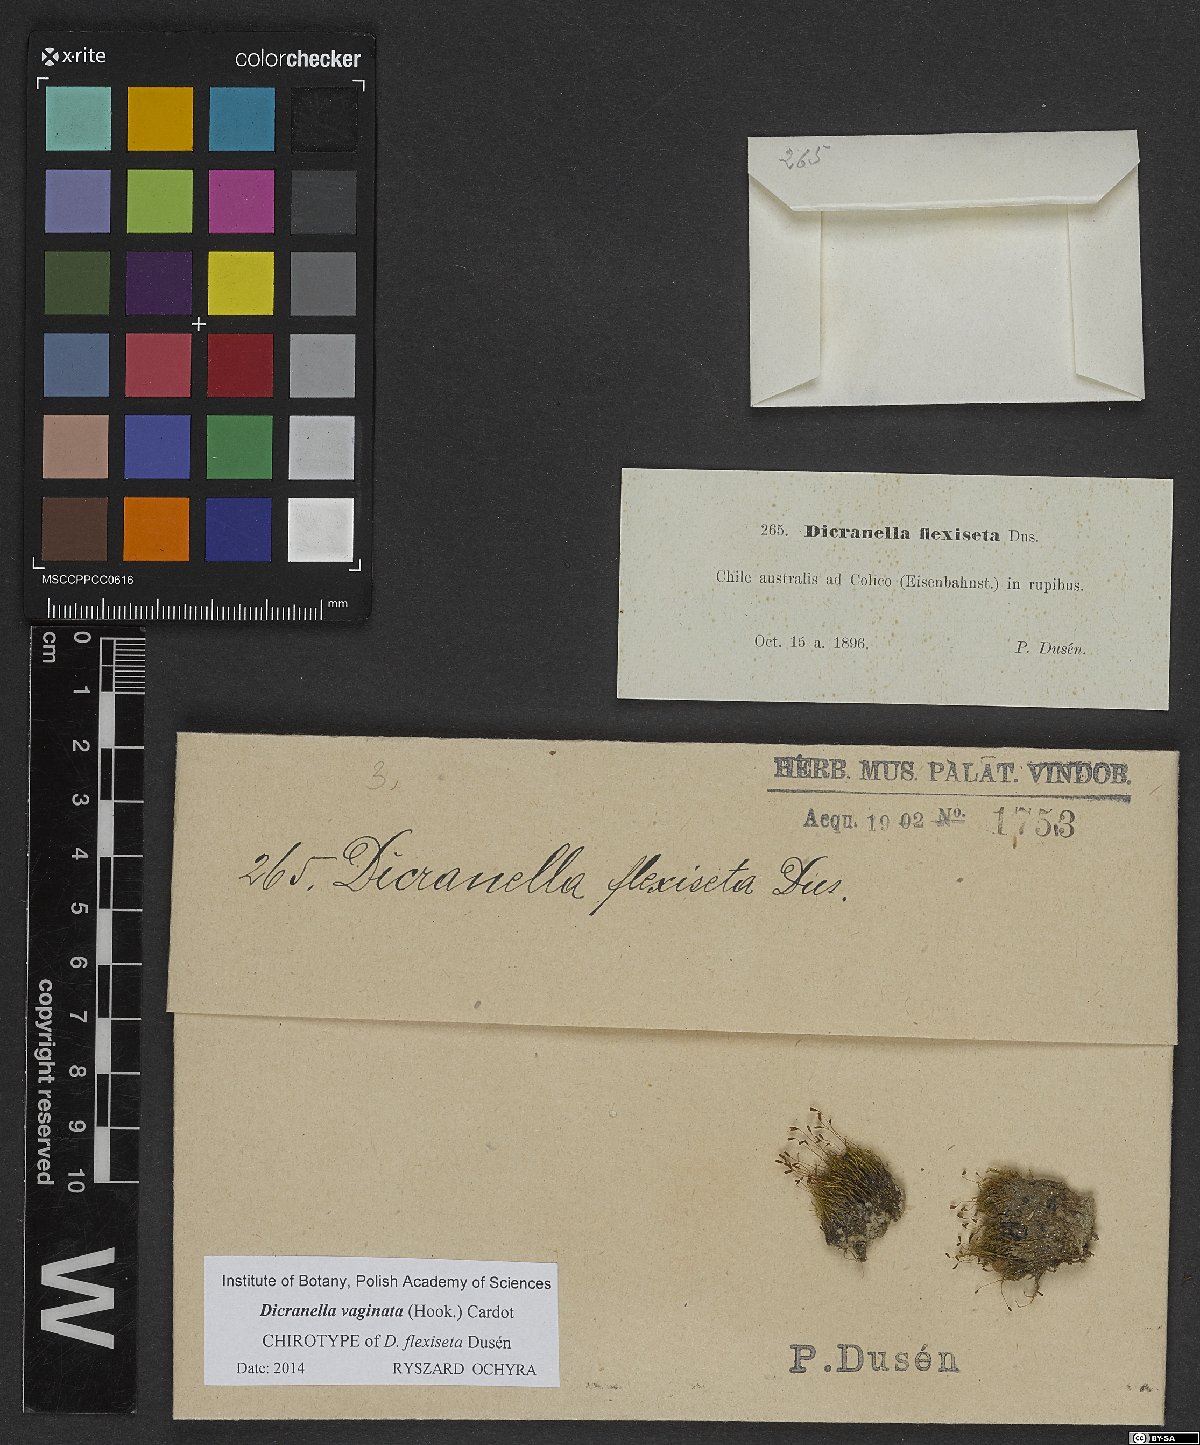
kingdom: Plantae
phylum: Bryophyta
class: Bryopsida
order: Dicranales
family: Dicranaceae
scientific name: Dicranaceae
